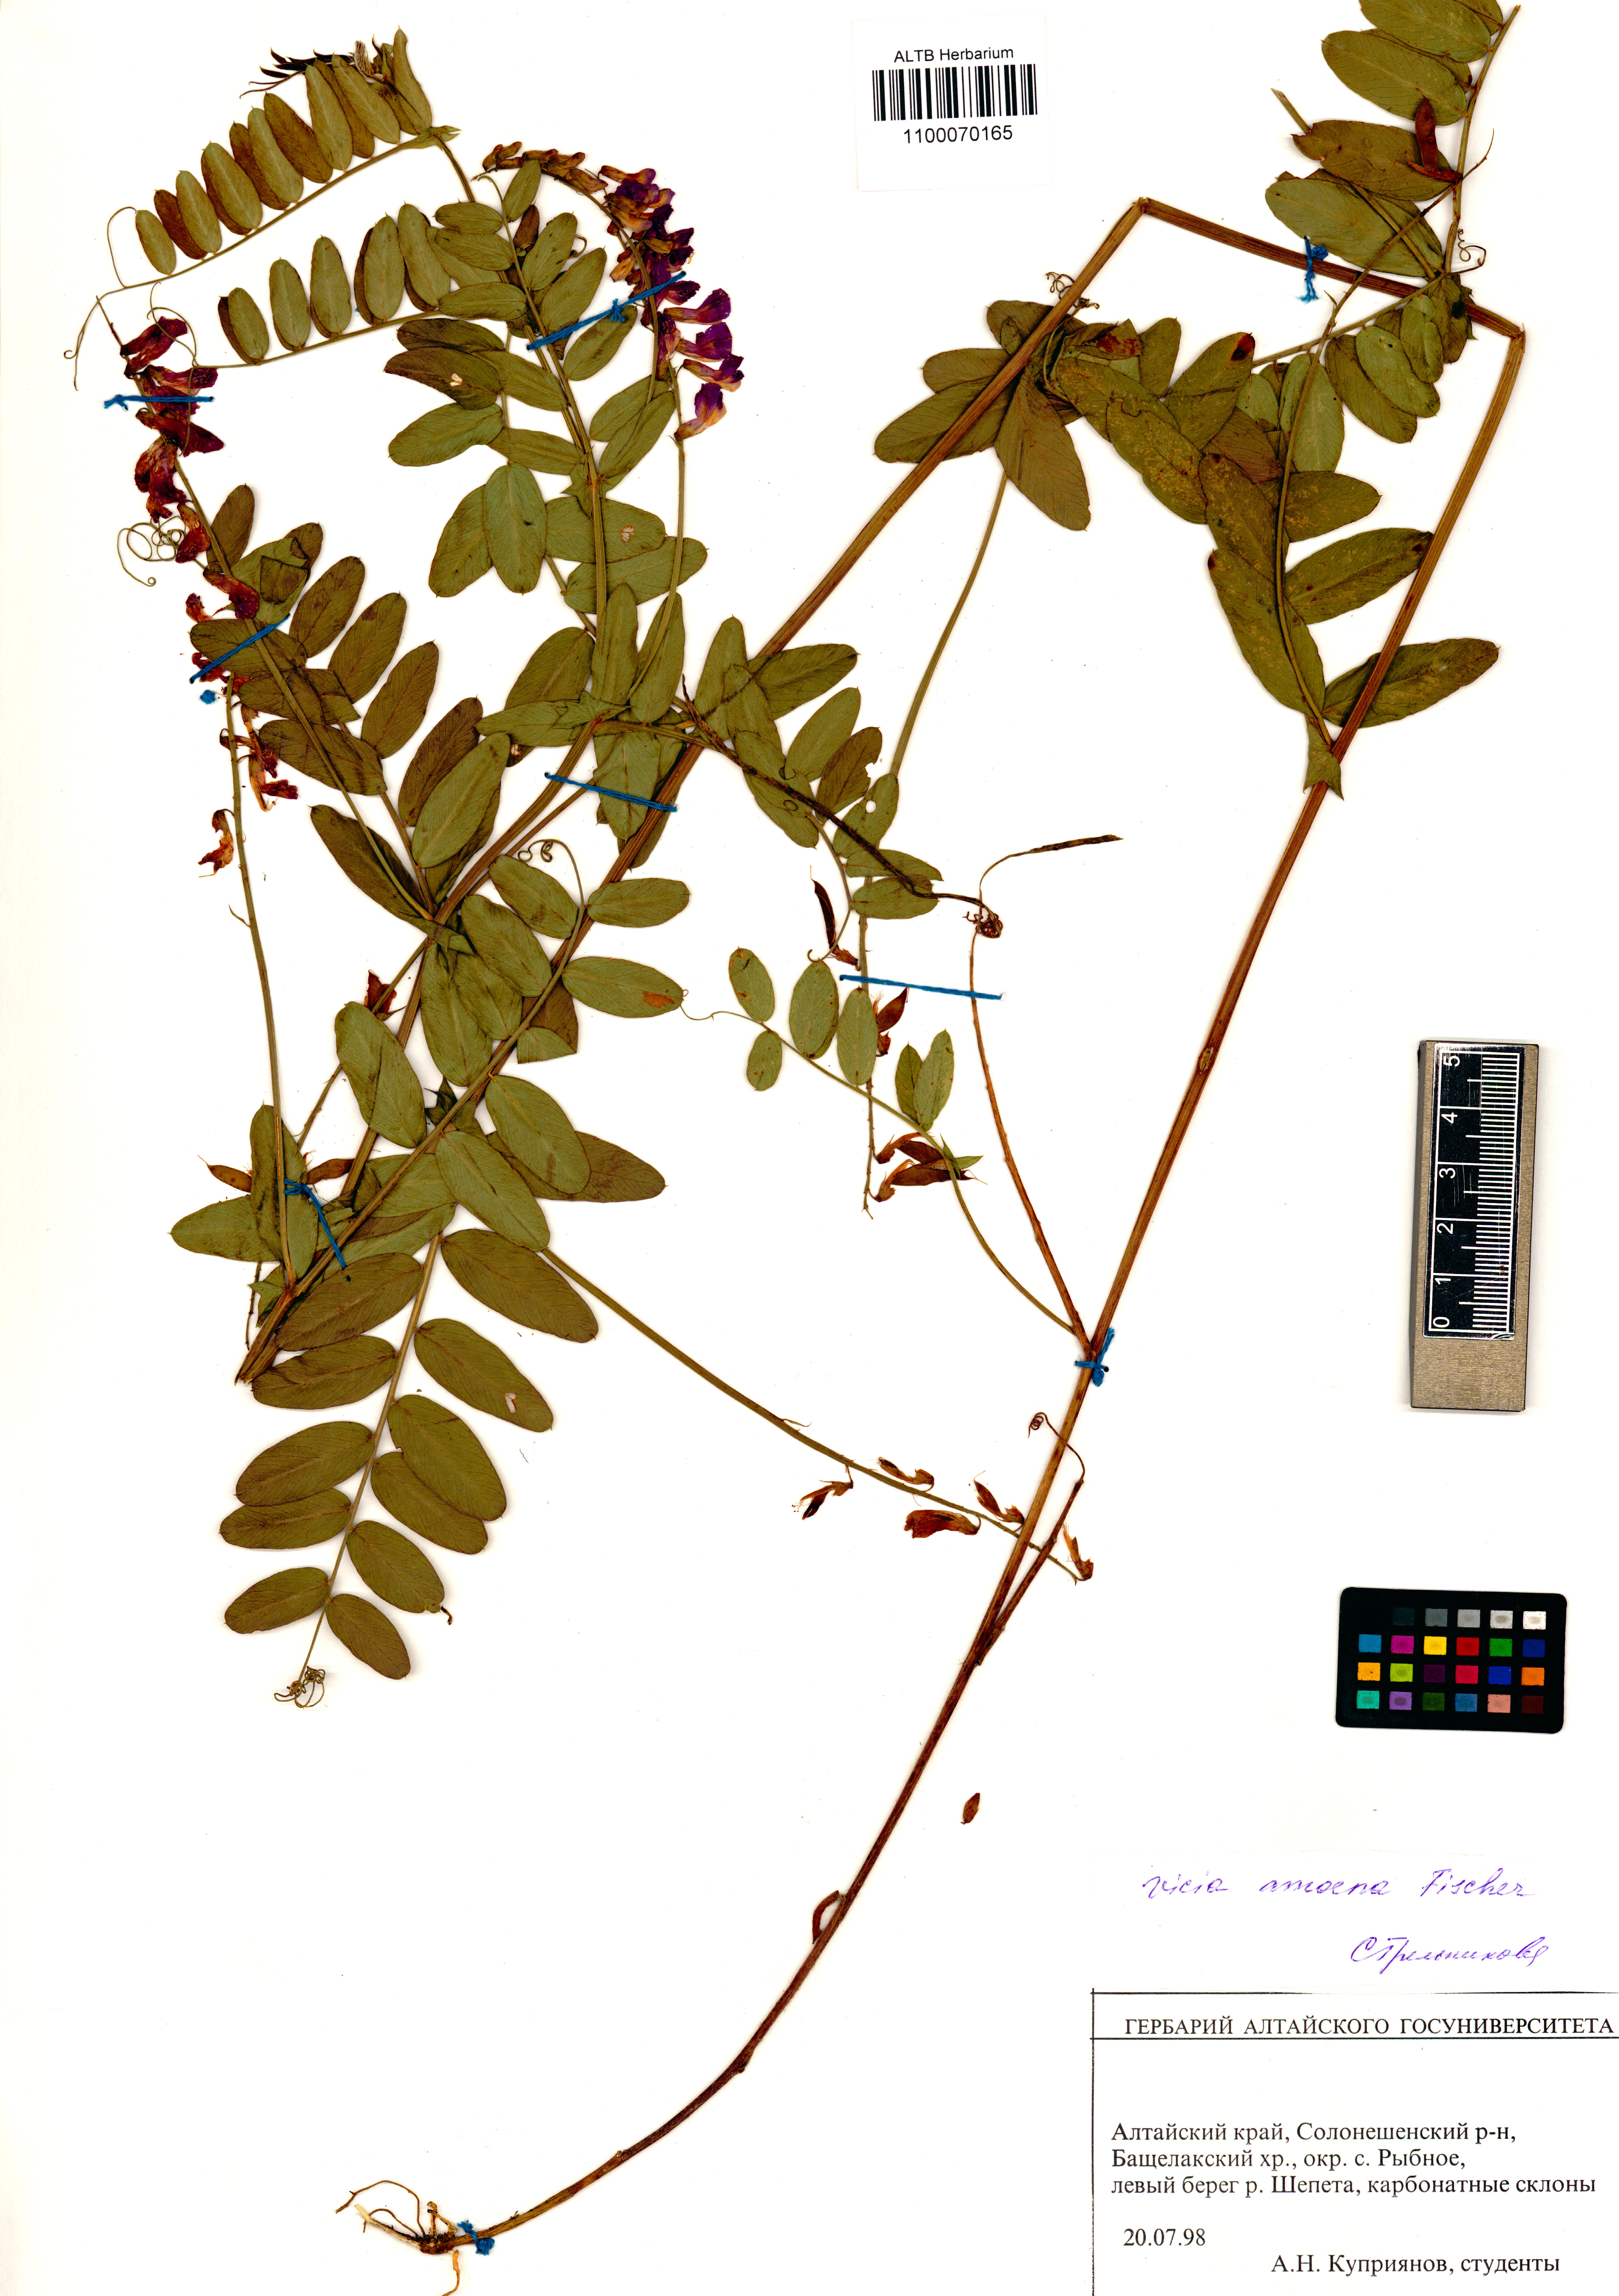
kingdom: Plantae
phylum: Tracheophyta
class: Magnoliopsida
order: Fabales
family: Fabaceae
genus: Vicia
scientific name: Vicia amoena
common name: Cheder ebs
